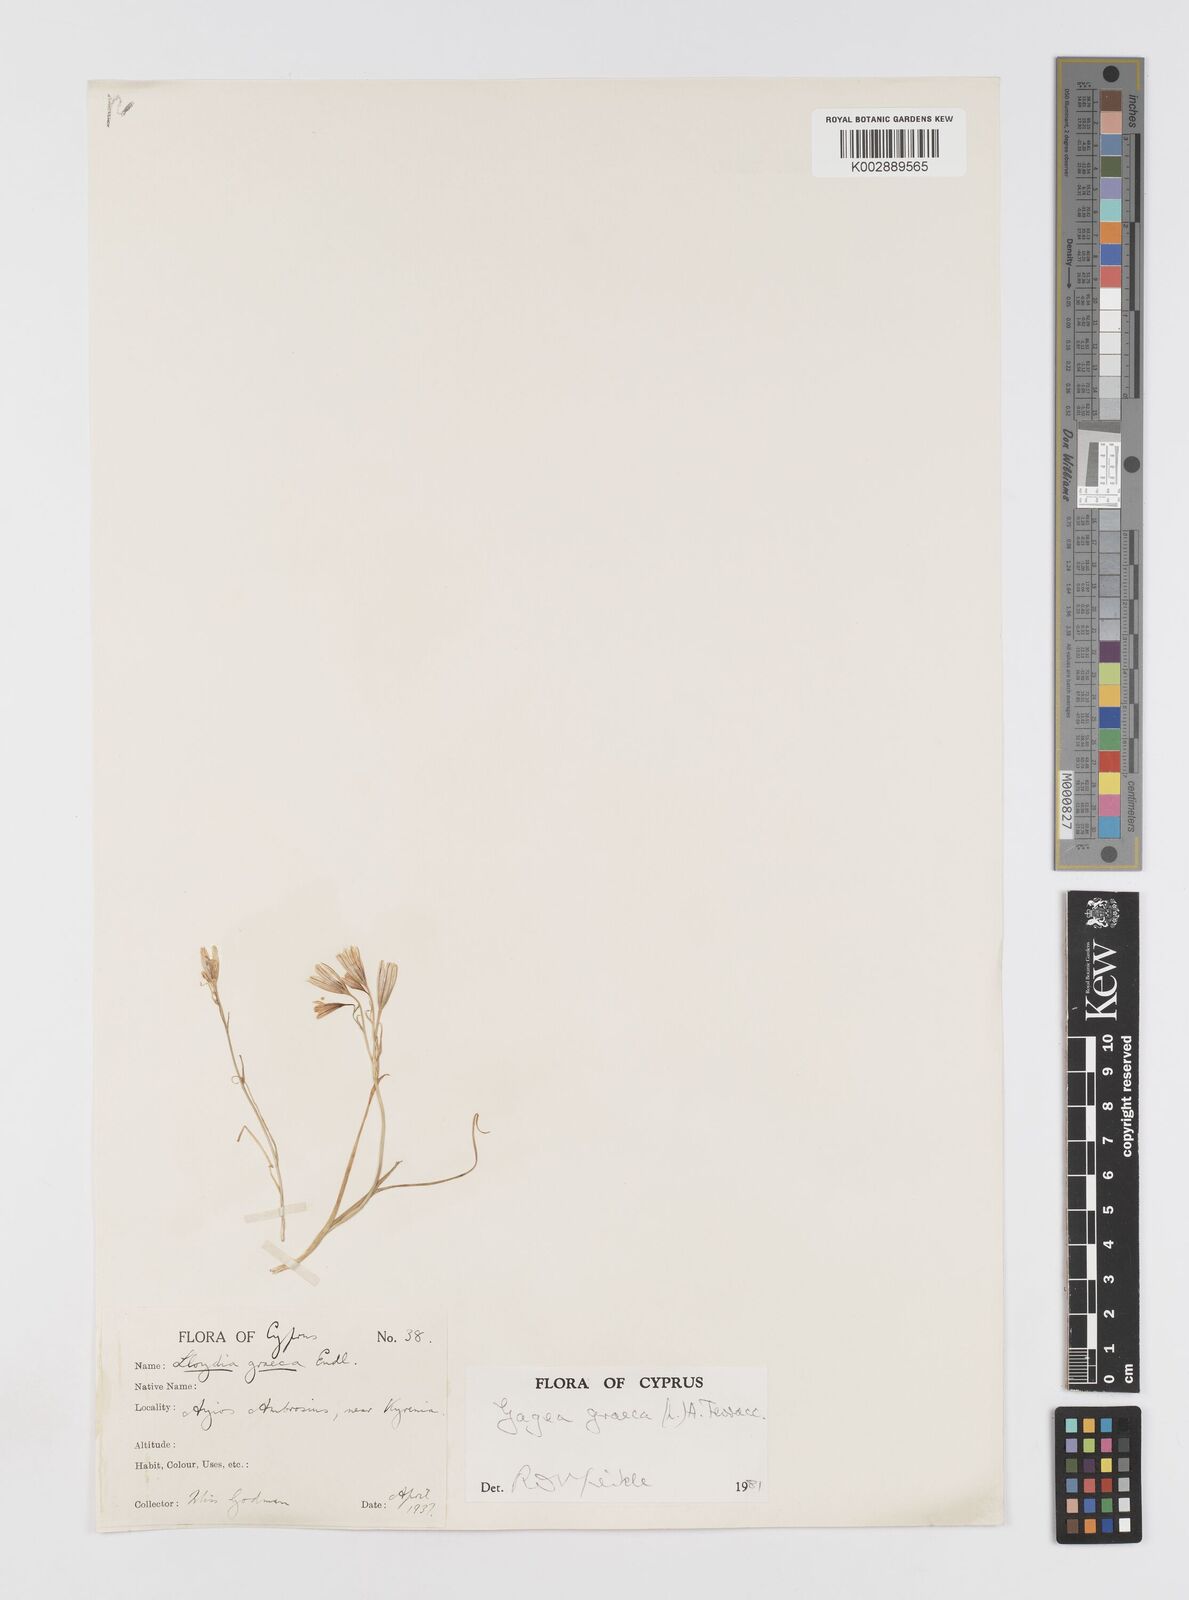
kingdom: Plantae
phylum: Tracheophyta
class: Liliopsida
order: Liliales
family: Liliaceae
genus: Gagea
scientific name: Gagea graeca
